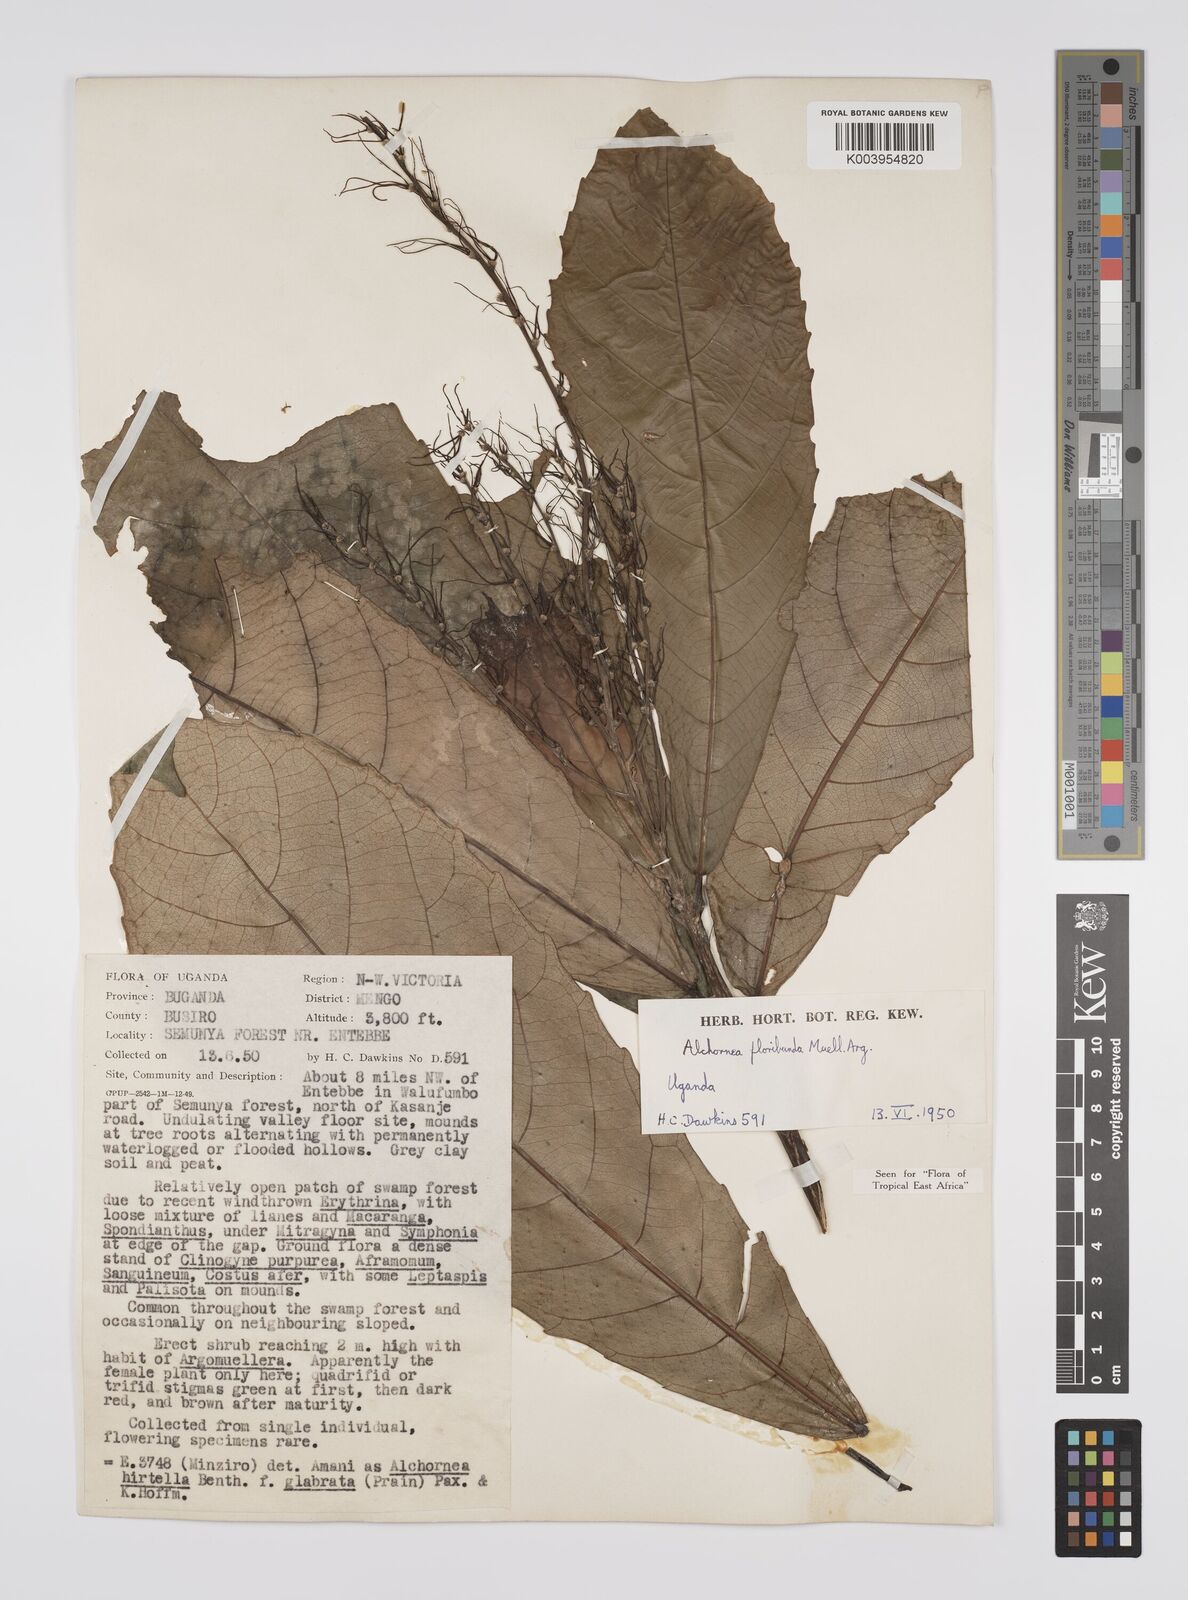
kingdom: Plantae
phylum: Tracheophyta
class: Magnoliopsida
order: Malpighiales
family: Euphorbiaceae
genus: Alchornea
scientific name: Alchornea floribunda
